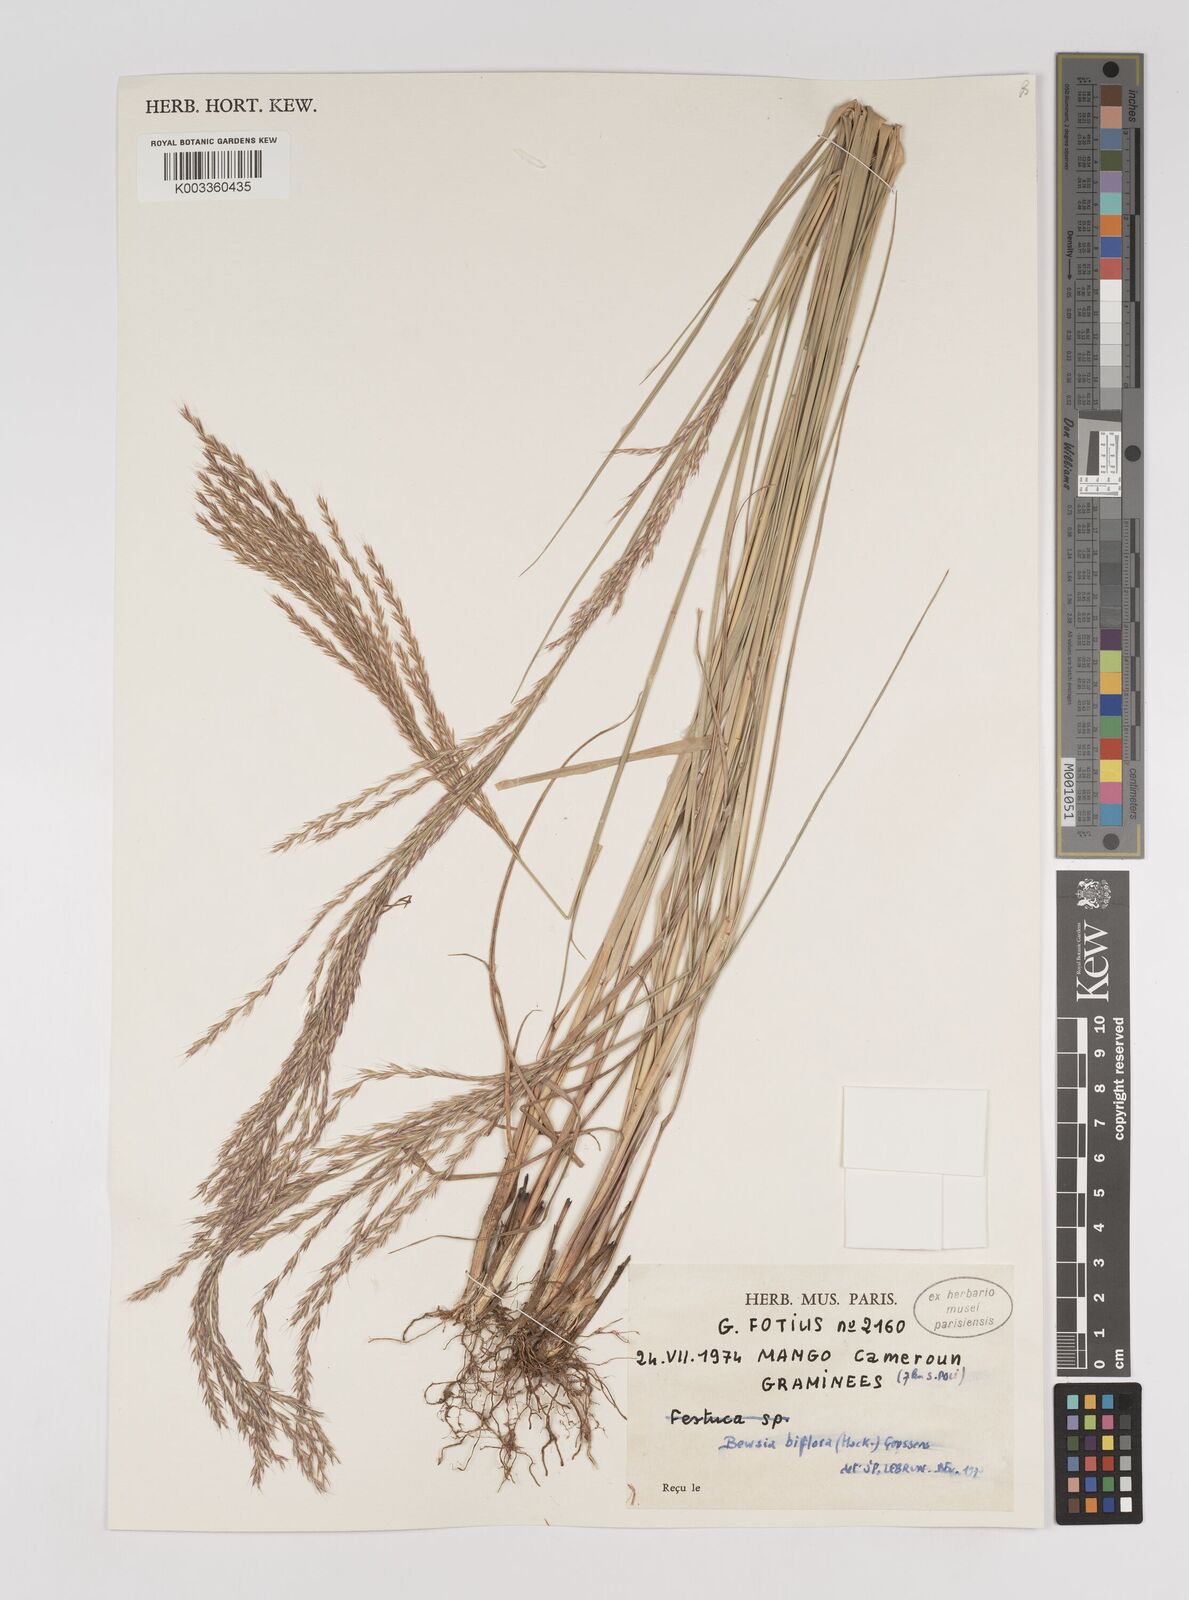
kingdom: Plantae
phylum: Tracheophyta
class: Liliopsida
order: Poales
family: Poaceae
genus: Bewsia
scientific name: Bewsia biflora
